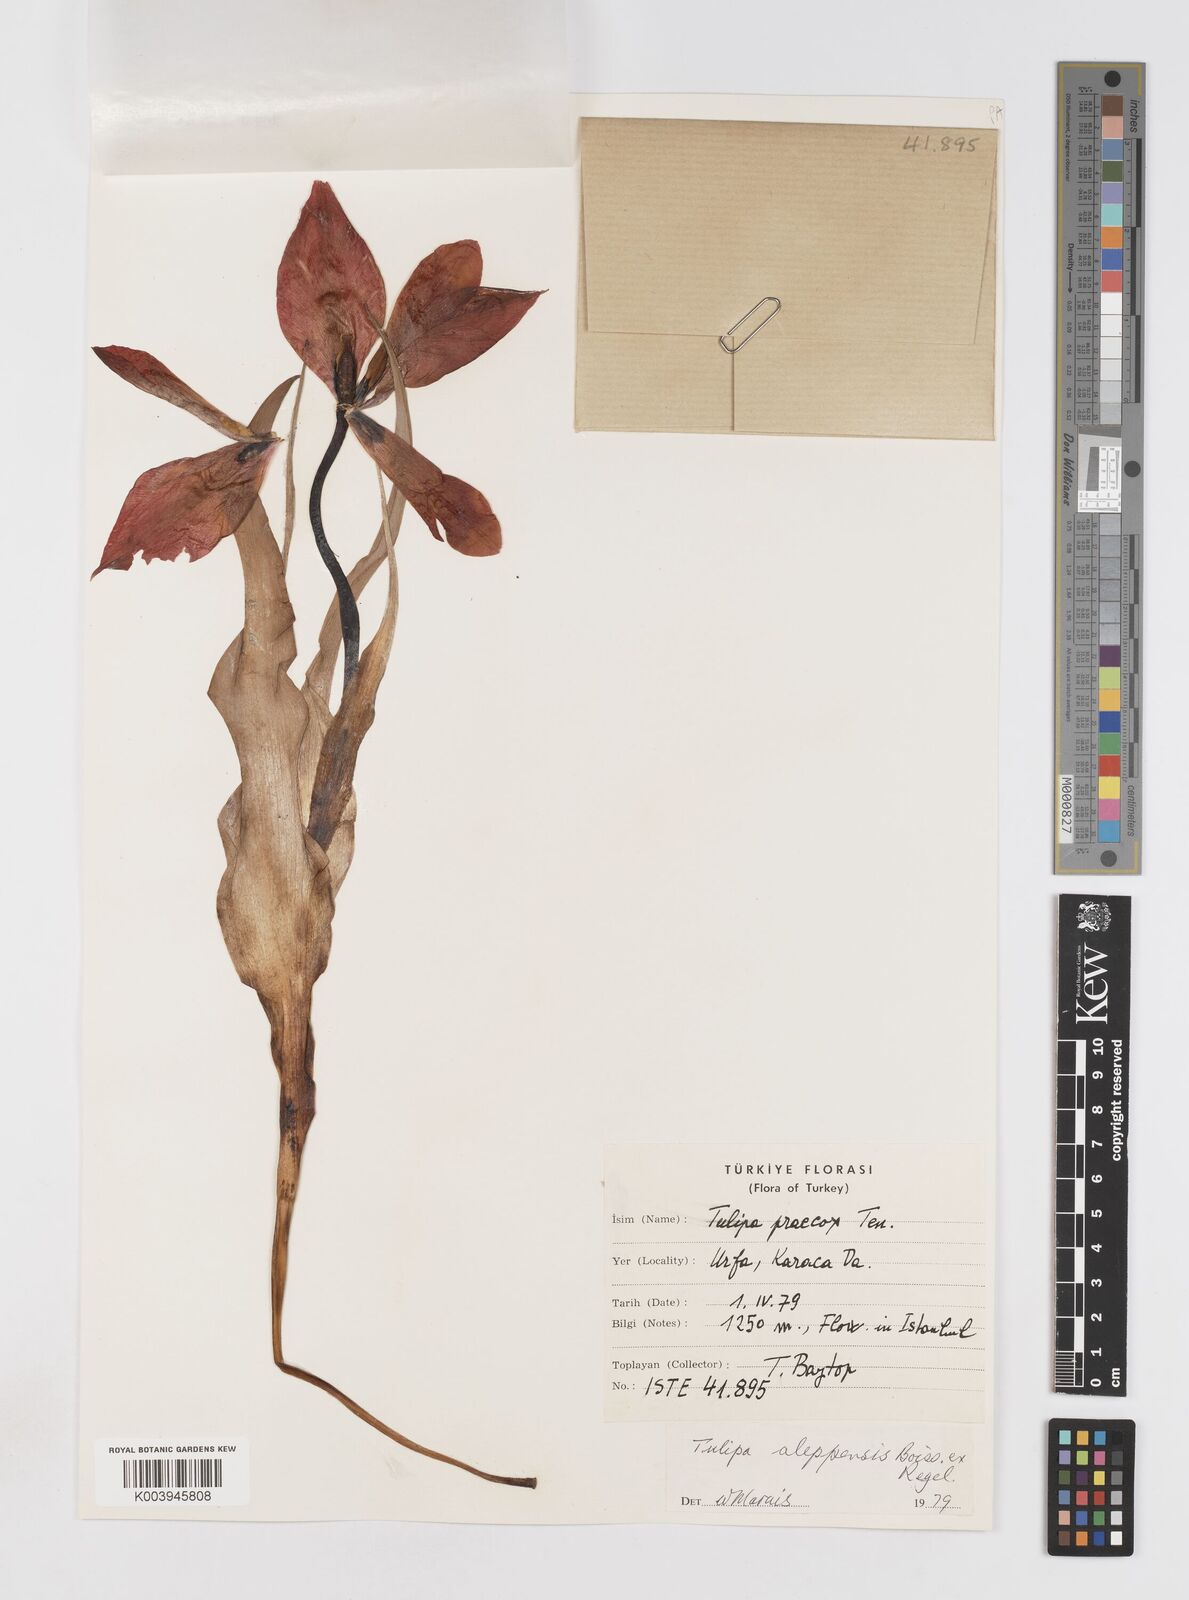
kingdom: Plantae
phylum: Tracheophyta
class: Liliopsida
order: Liliales
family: Liliaceae
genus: Tulipa
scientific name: Tulipa aleppensis
